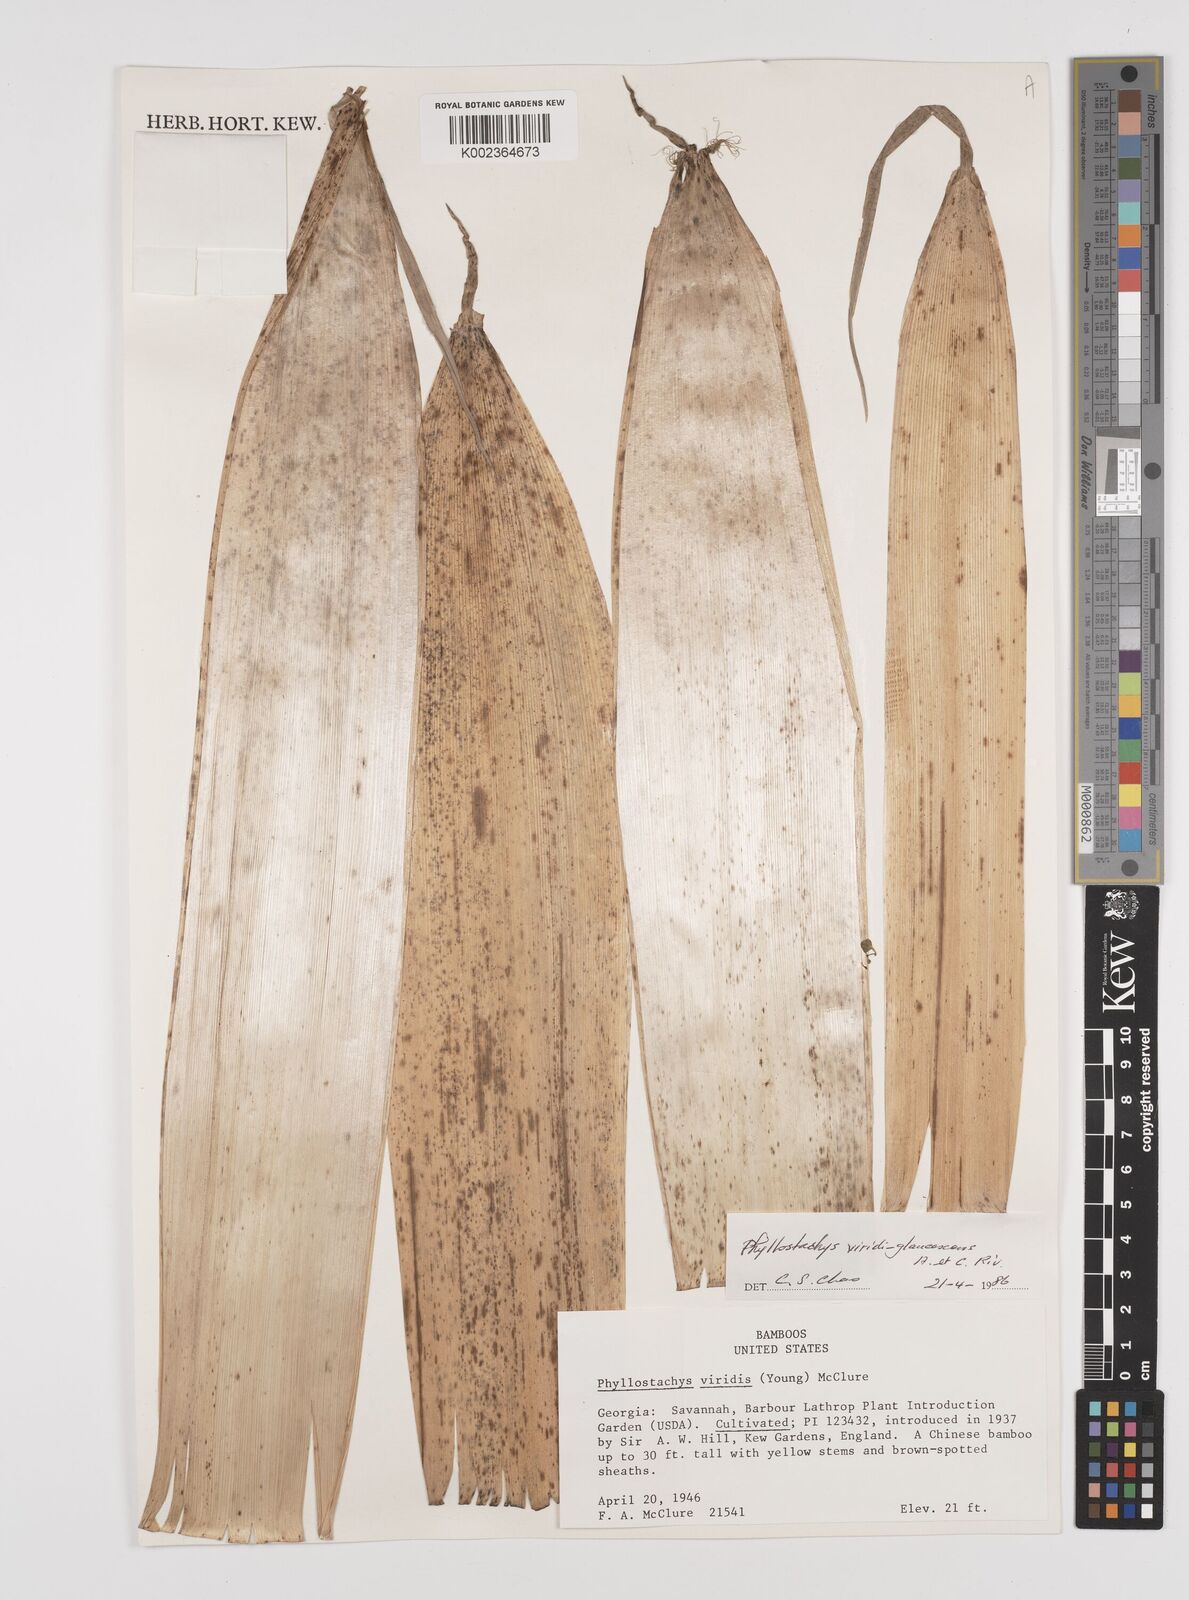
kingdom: Plantae
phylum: Tracheophyta
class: Liliopsida
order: Poales
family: Poaceae
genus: Phyllostachys
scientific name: Phyllostachys viridiglaucescens
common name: Greenwax golden bamboo
